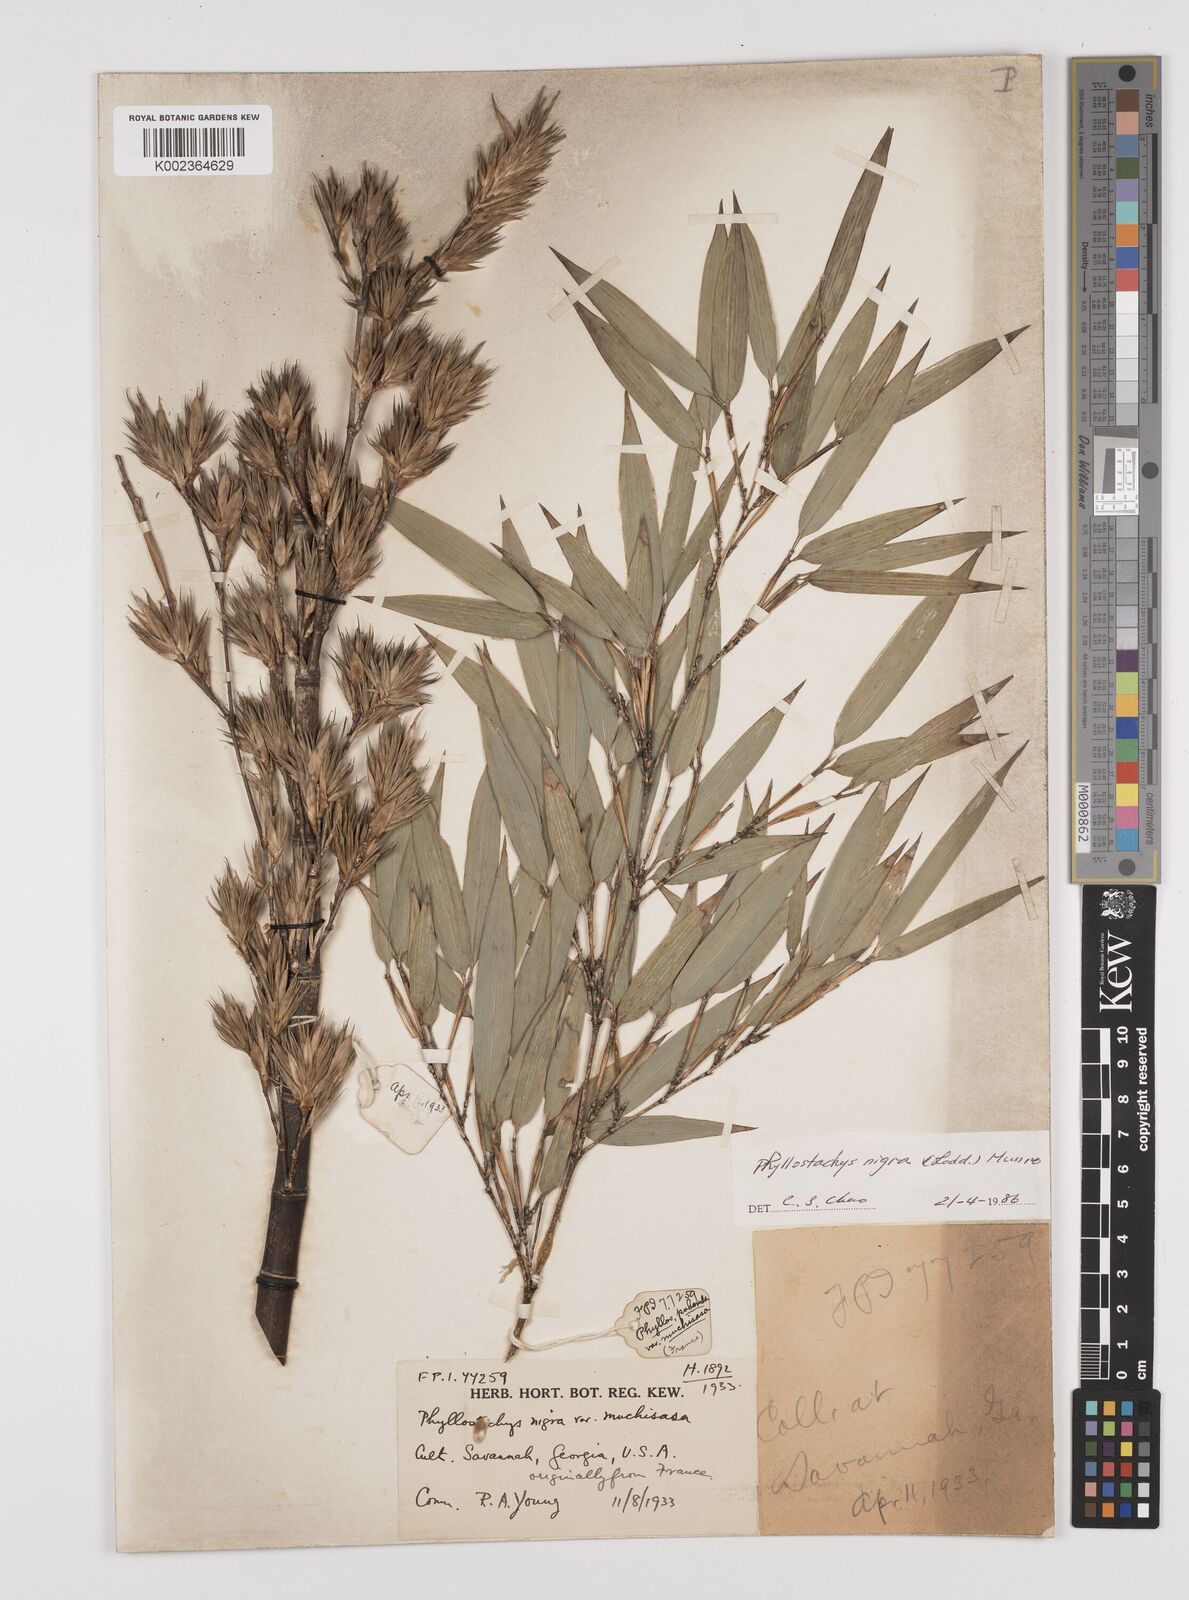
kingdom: Plantae
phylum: Tracheophyta
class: Liliopsida
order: Poales
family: Poaceae
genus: Phyllostachys
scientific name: Phyllostachys nigra
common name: Black bamboo
